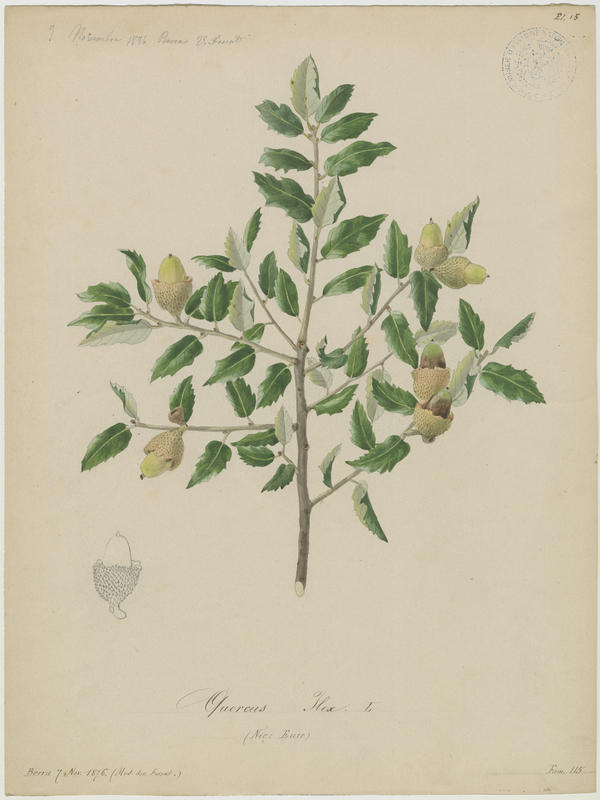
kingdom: Plantae
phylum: Tracheophyta
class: Magnoliopsida
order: Fagales
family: Fagaceae
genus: Quercus
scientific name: Quercus ilex
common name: Evergreen oak
